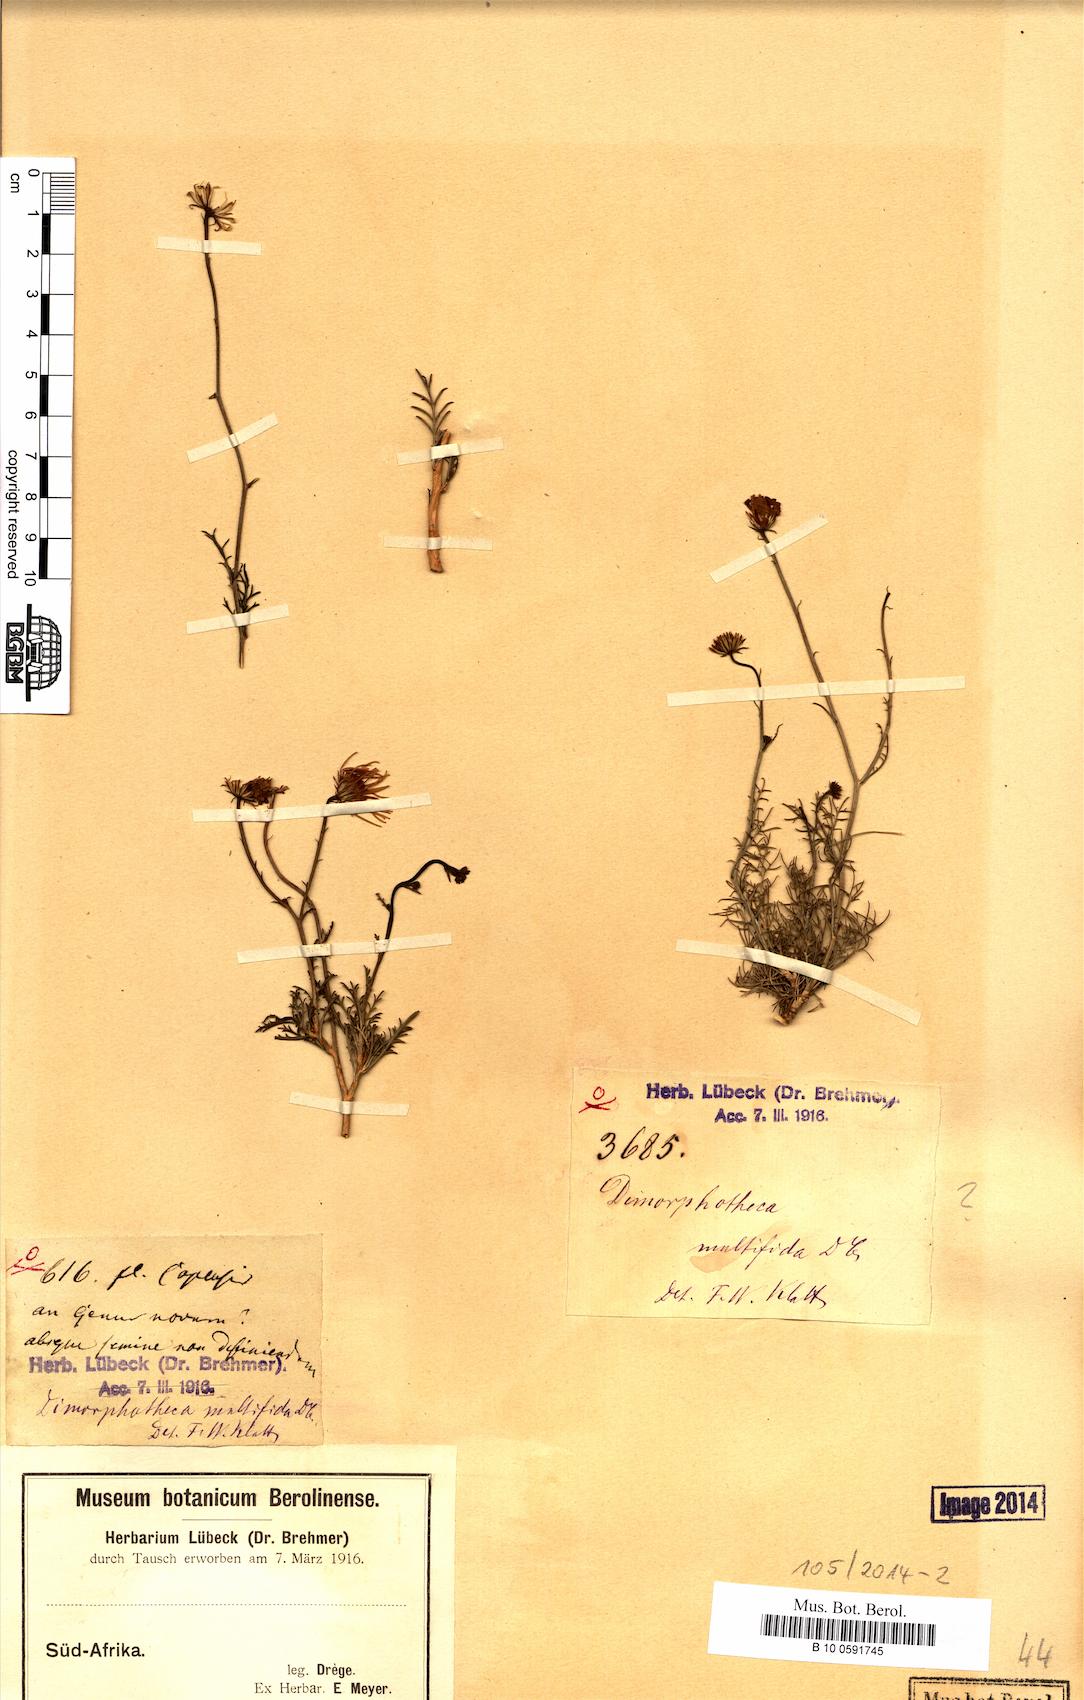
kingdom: Plantae
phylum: Tracheophyta
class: Magnoliopsida
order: Asterales
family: Asteraceae
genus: Garuleum
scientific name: Garuleum
